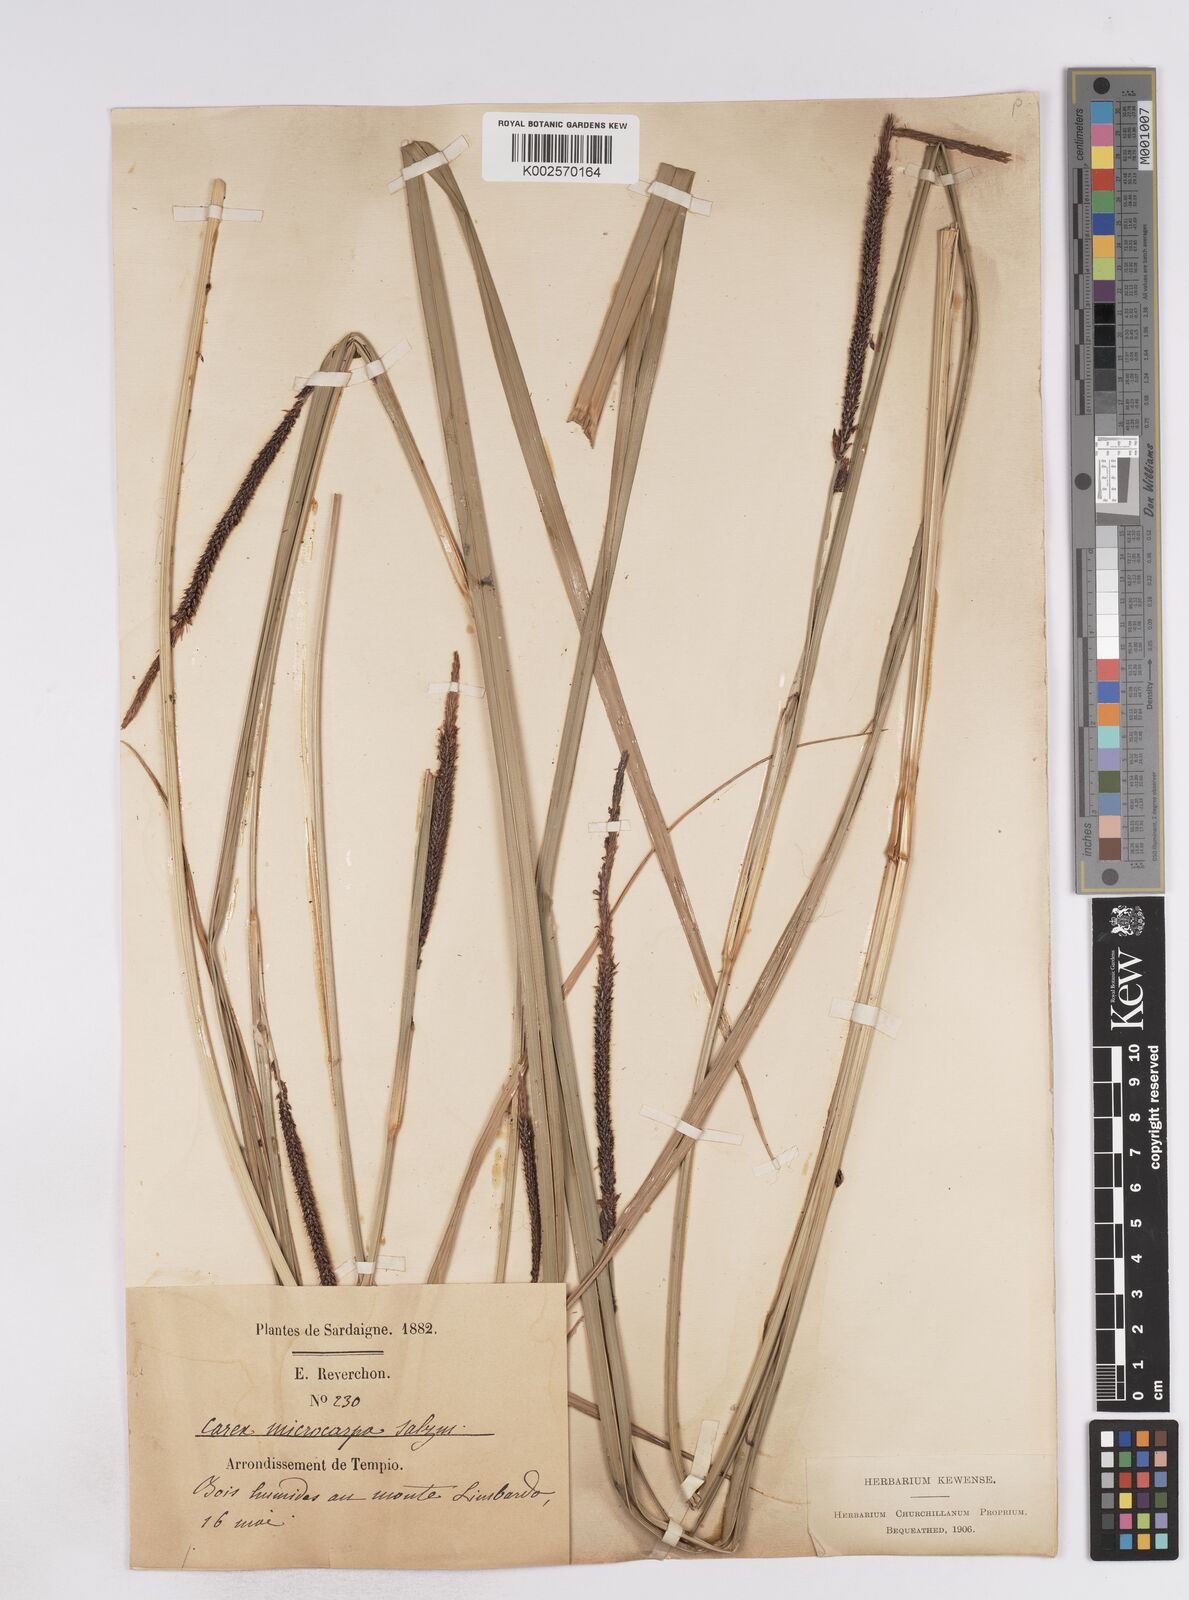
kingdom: Plantae
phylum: Tracheophyta
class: Liliopsida
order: Poales
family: Cyperaceae
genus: Carex
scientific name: Carex microcarpa
